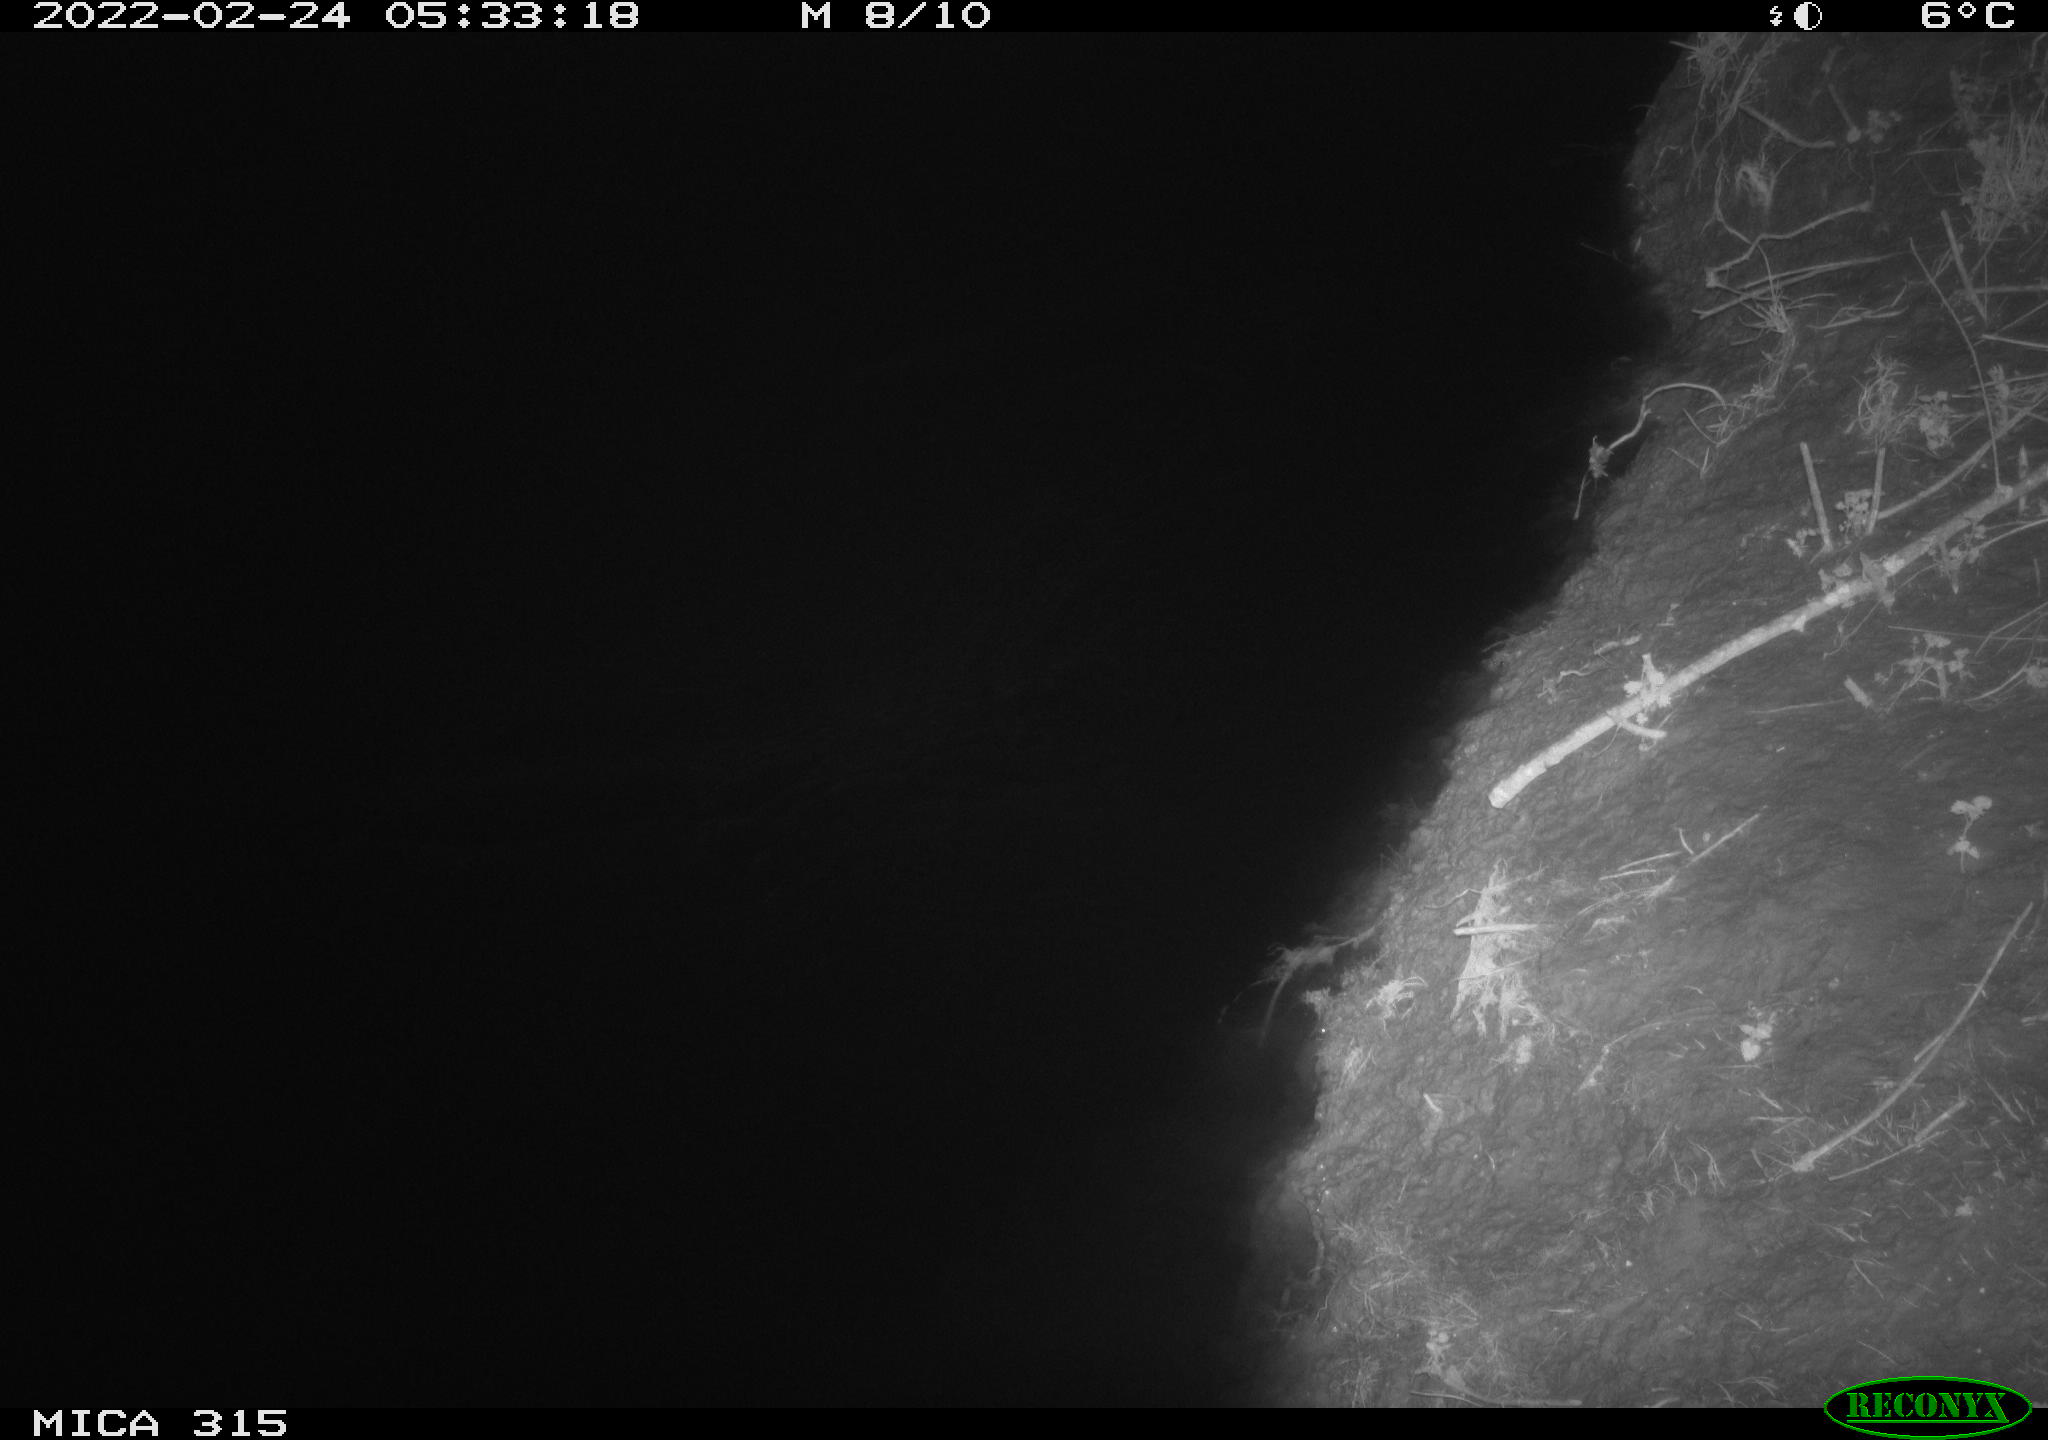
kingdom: Animalia
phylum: Chordata
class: Mammalia
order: Rodentia
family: Cricetidae
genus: Ondatra
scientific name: Ondatra zibethicus
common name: Muskrat
